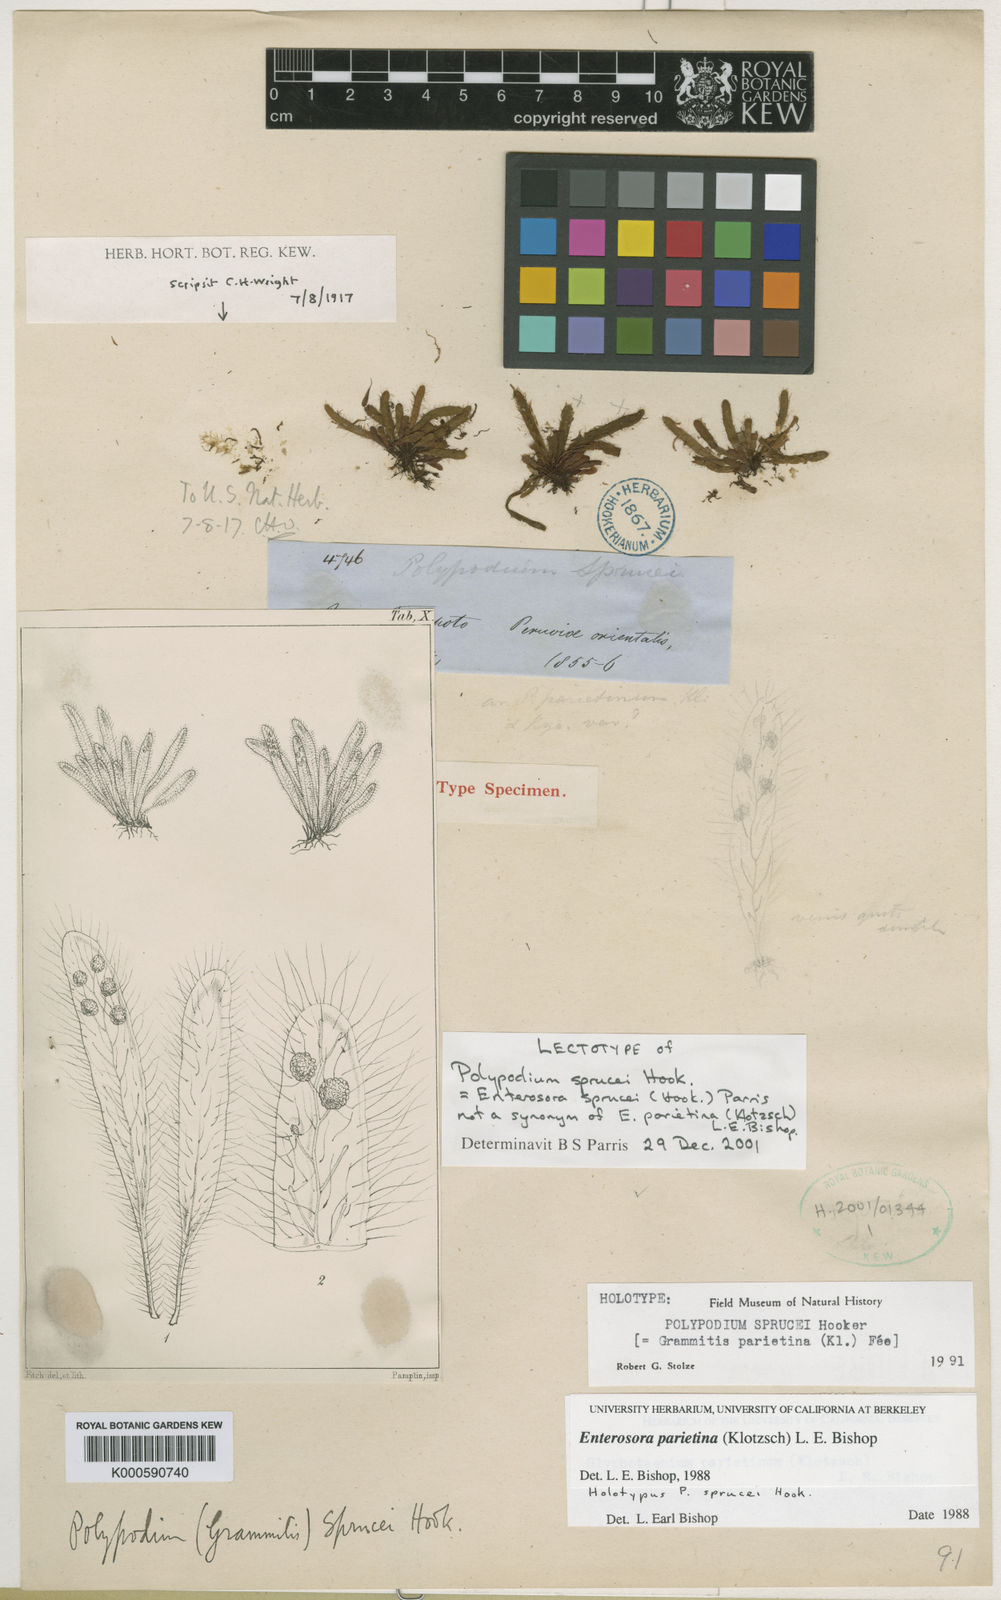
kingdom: Plantae
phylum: Tracheophyta
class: Polypodiopsida
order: Polypodiales
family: Polypodiaceae
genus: Parrisia
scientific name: Parrisia parietina
